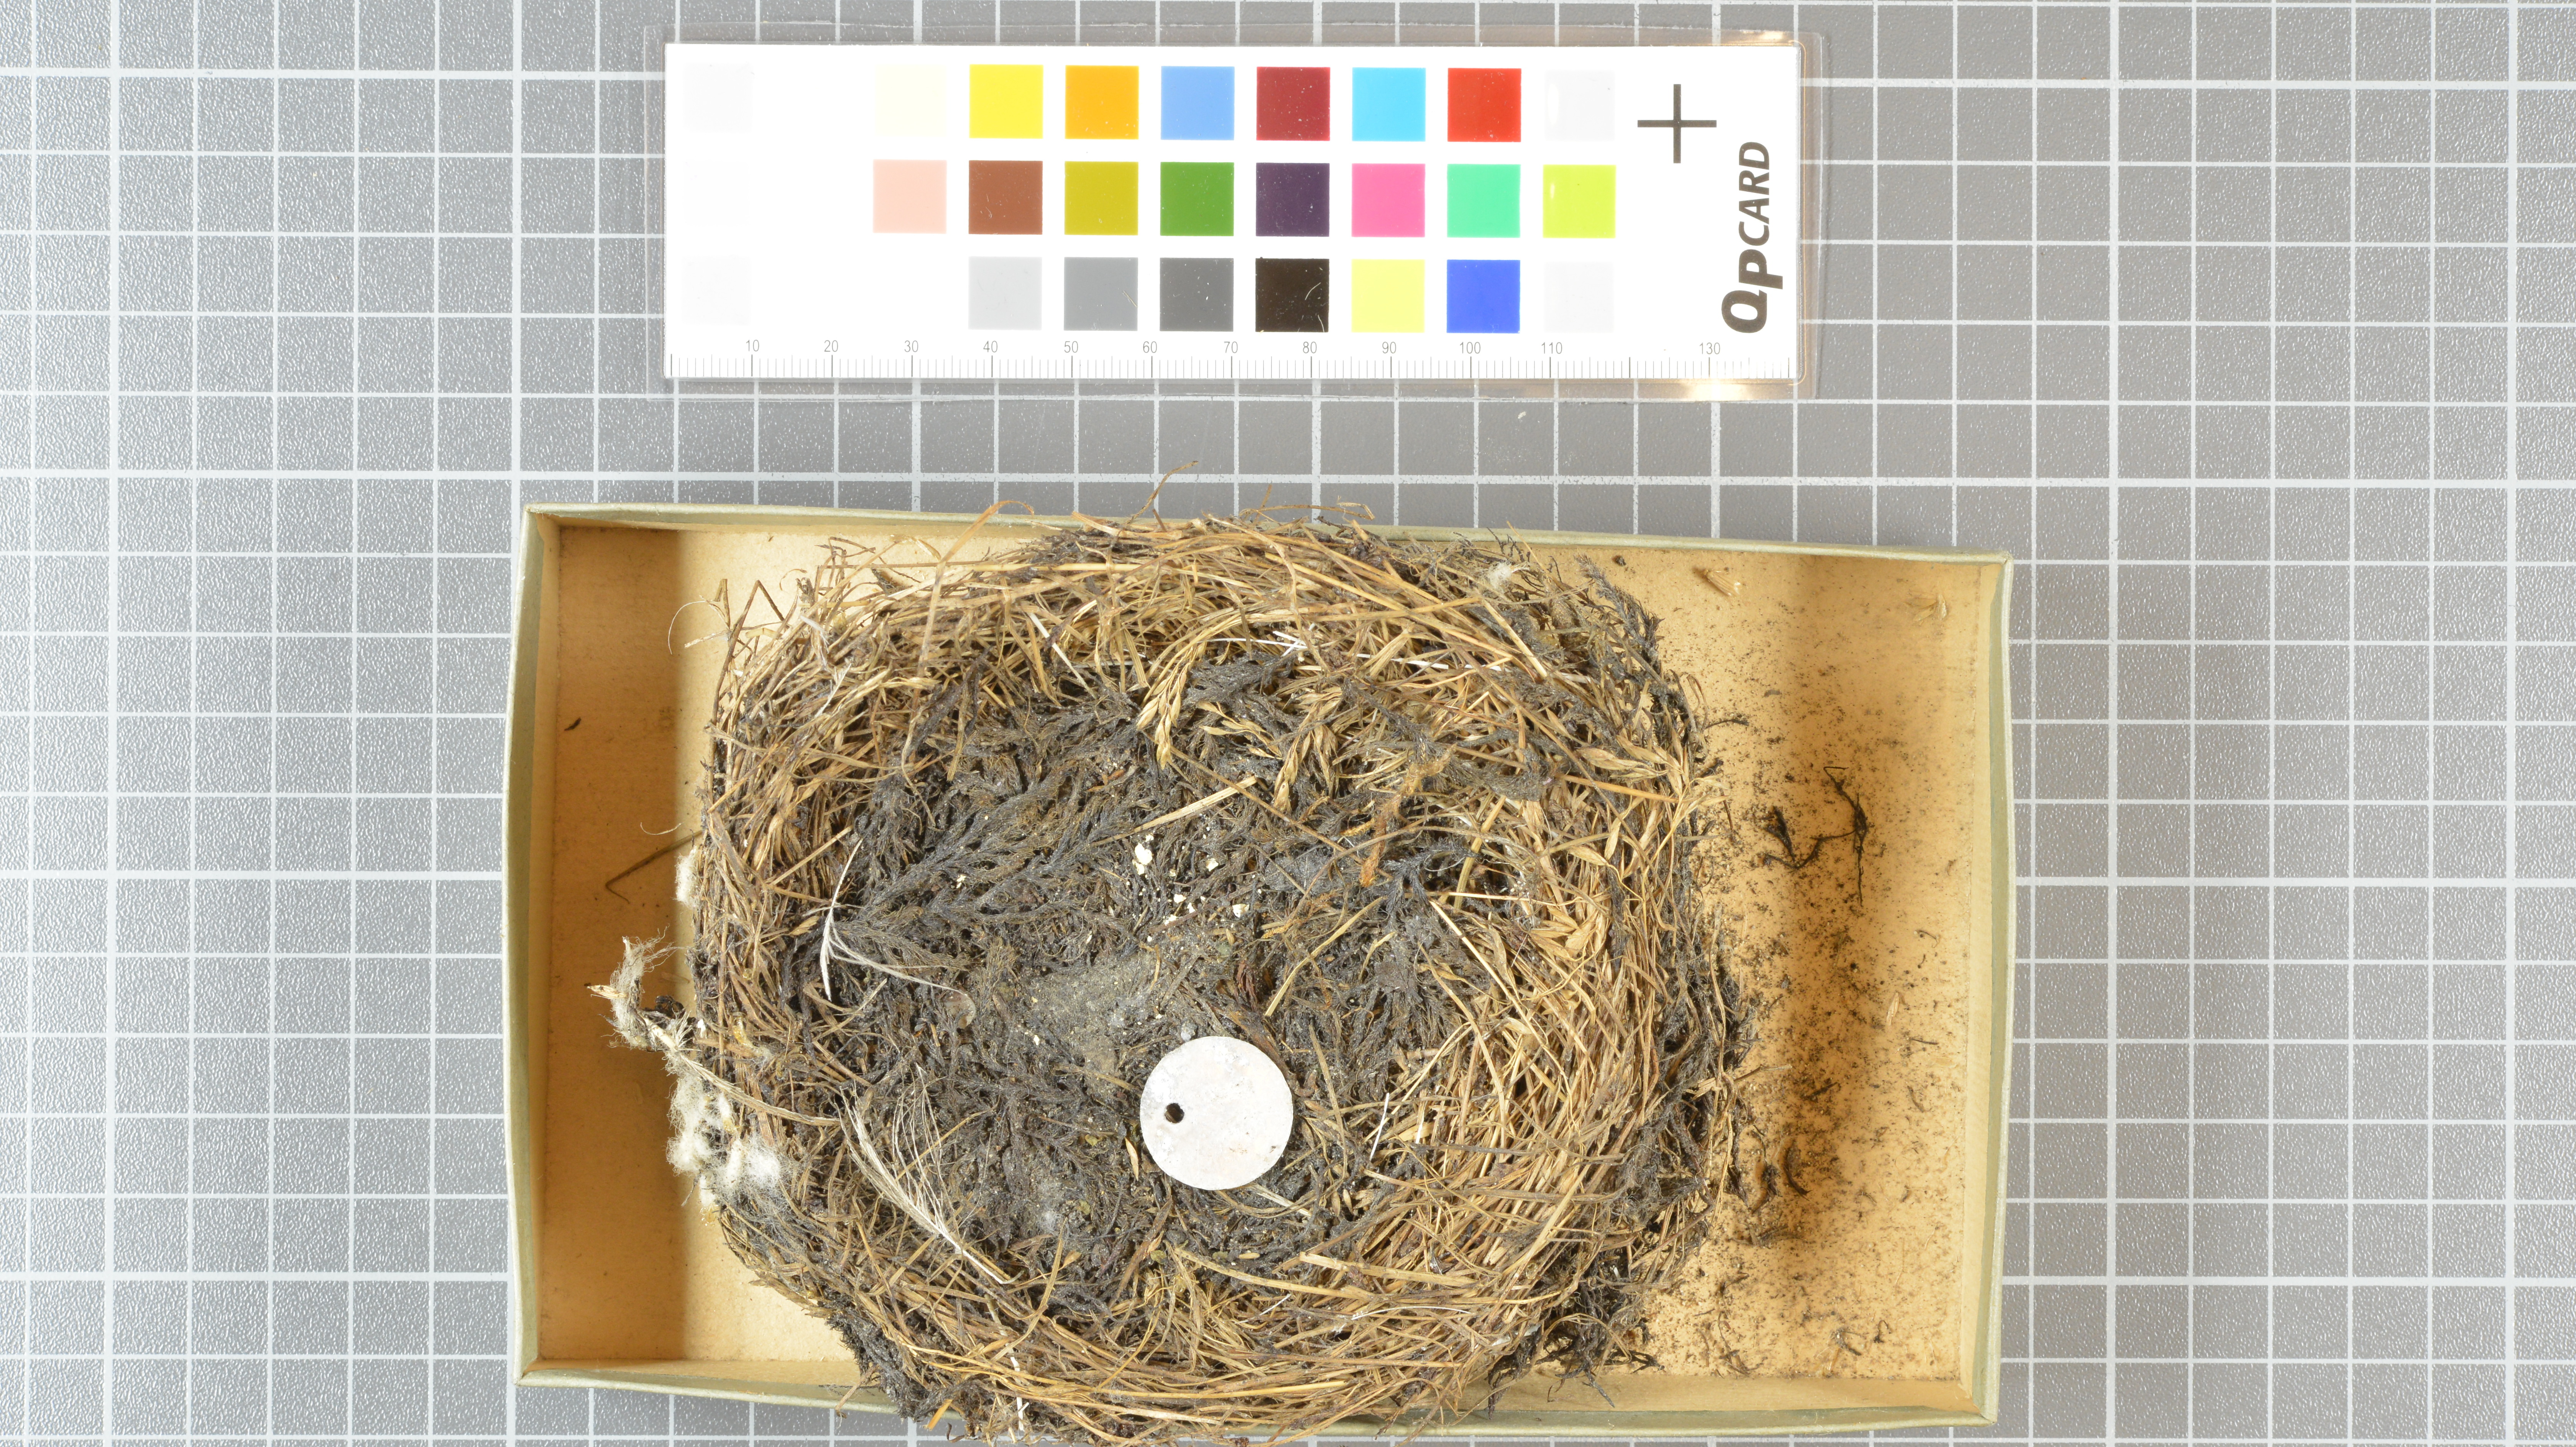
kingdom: Animalia
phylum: Chordata
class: Aves
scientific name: Aves
